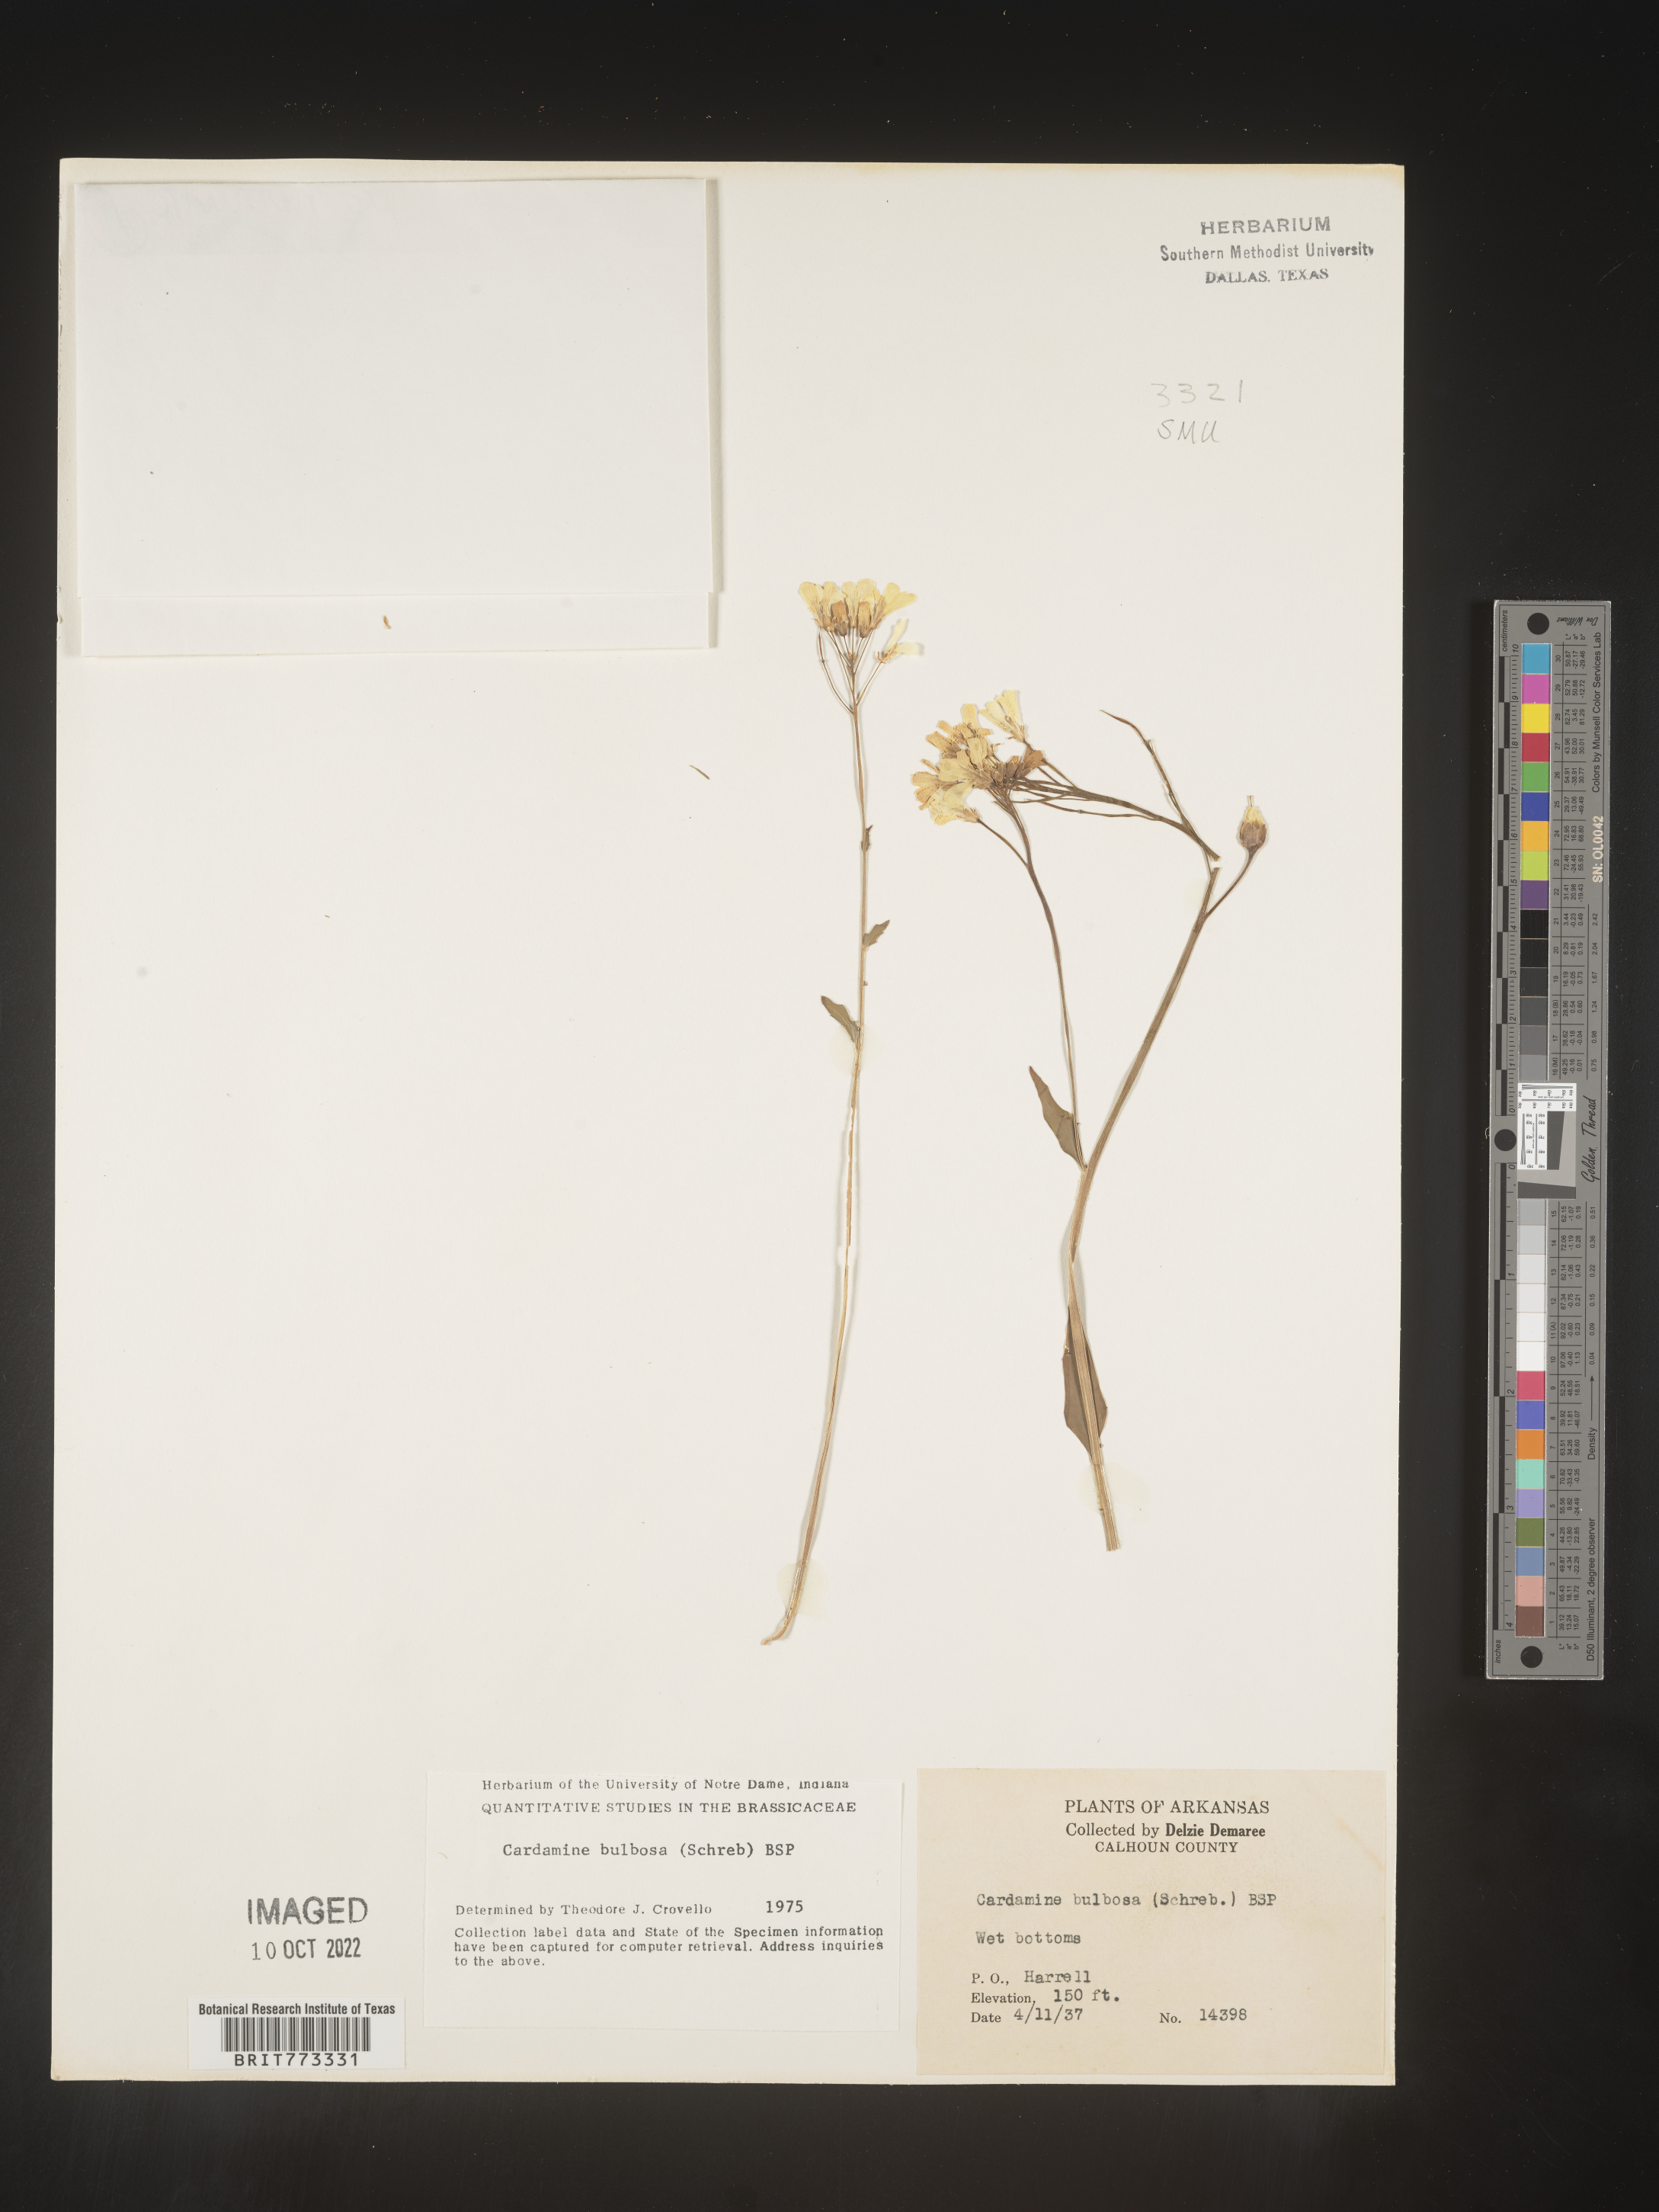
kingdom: Plantae
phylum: Tracheophyta
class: Magnoliopsida
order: Brassicales
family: Brassicaceae
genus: Cardamine
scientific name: Cardamine bulbosa
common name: Spring cress
